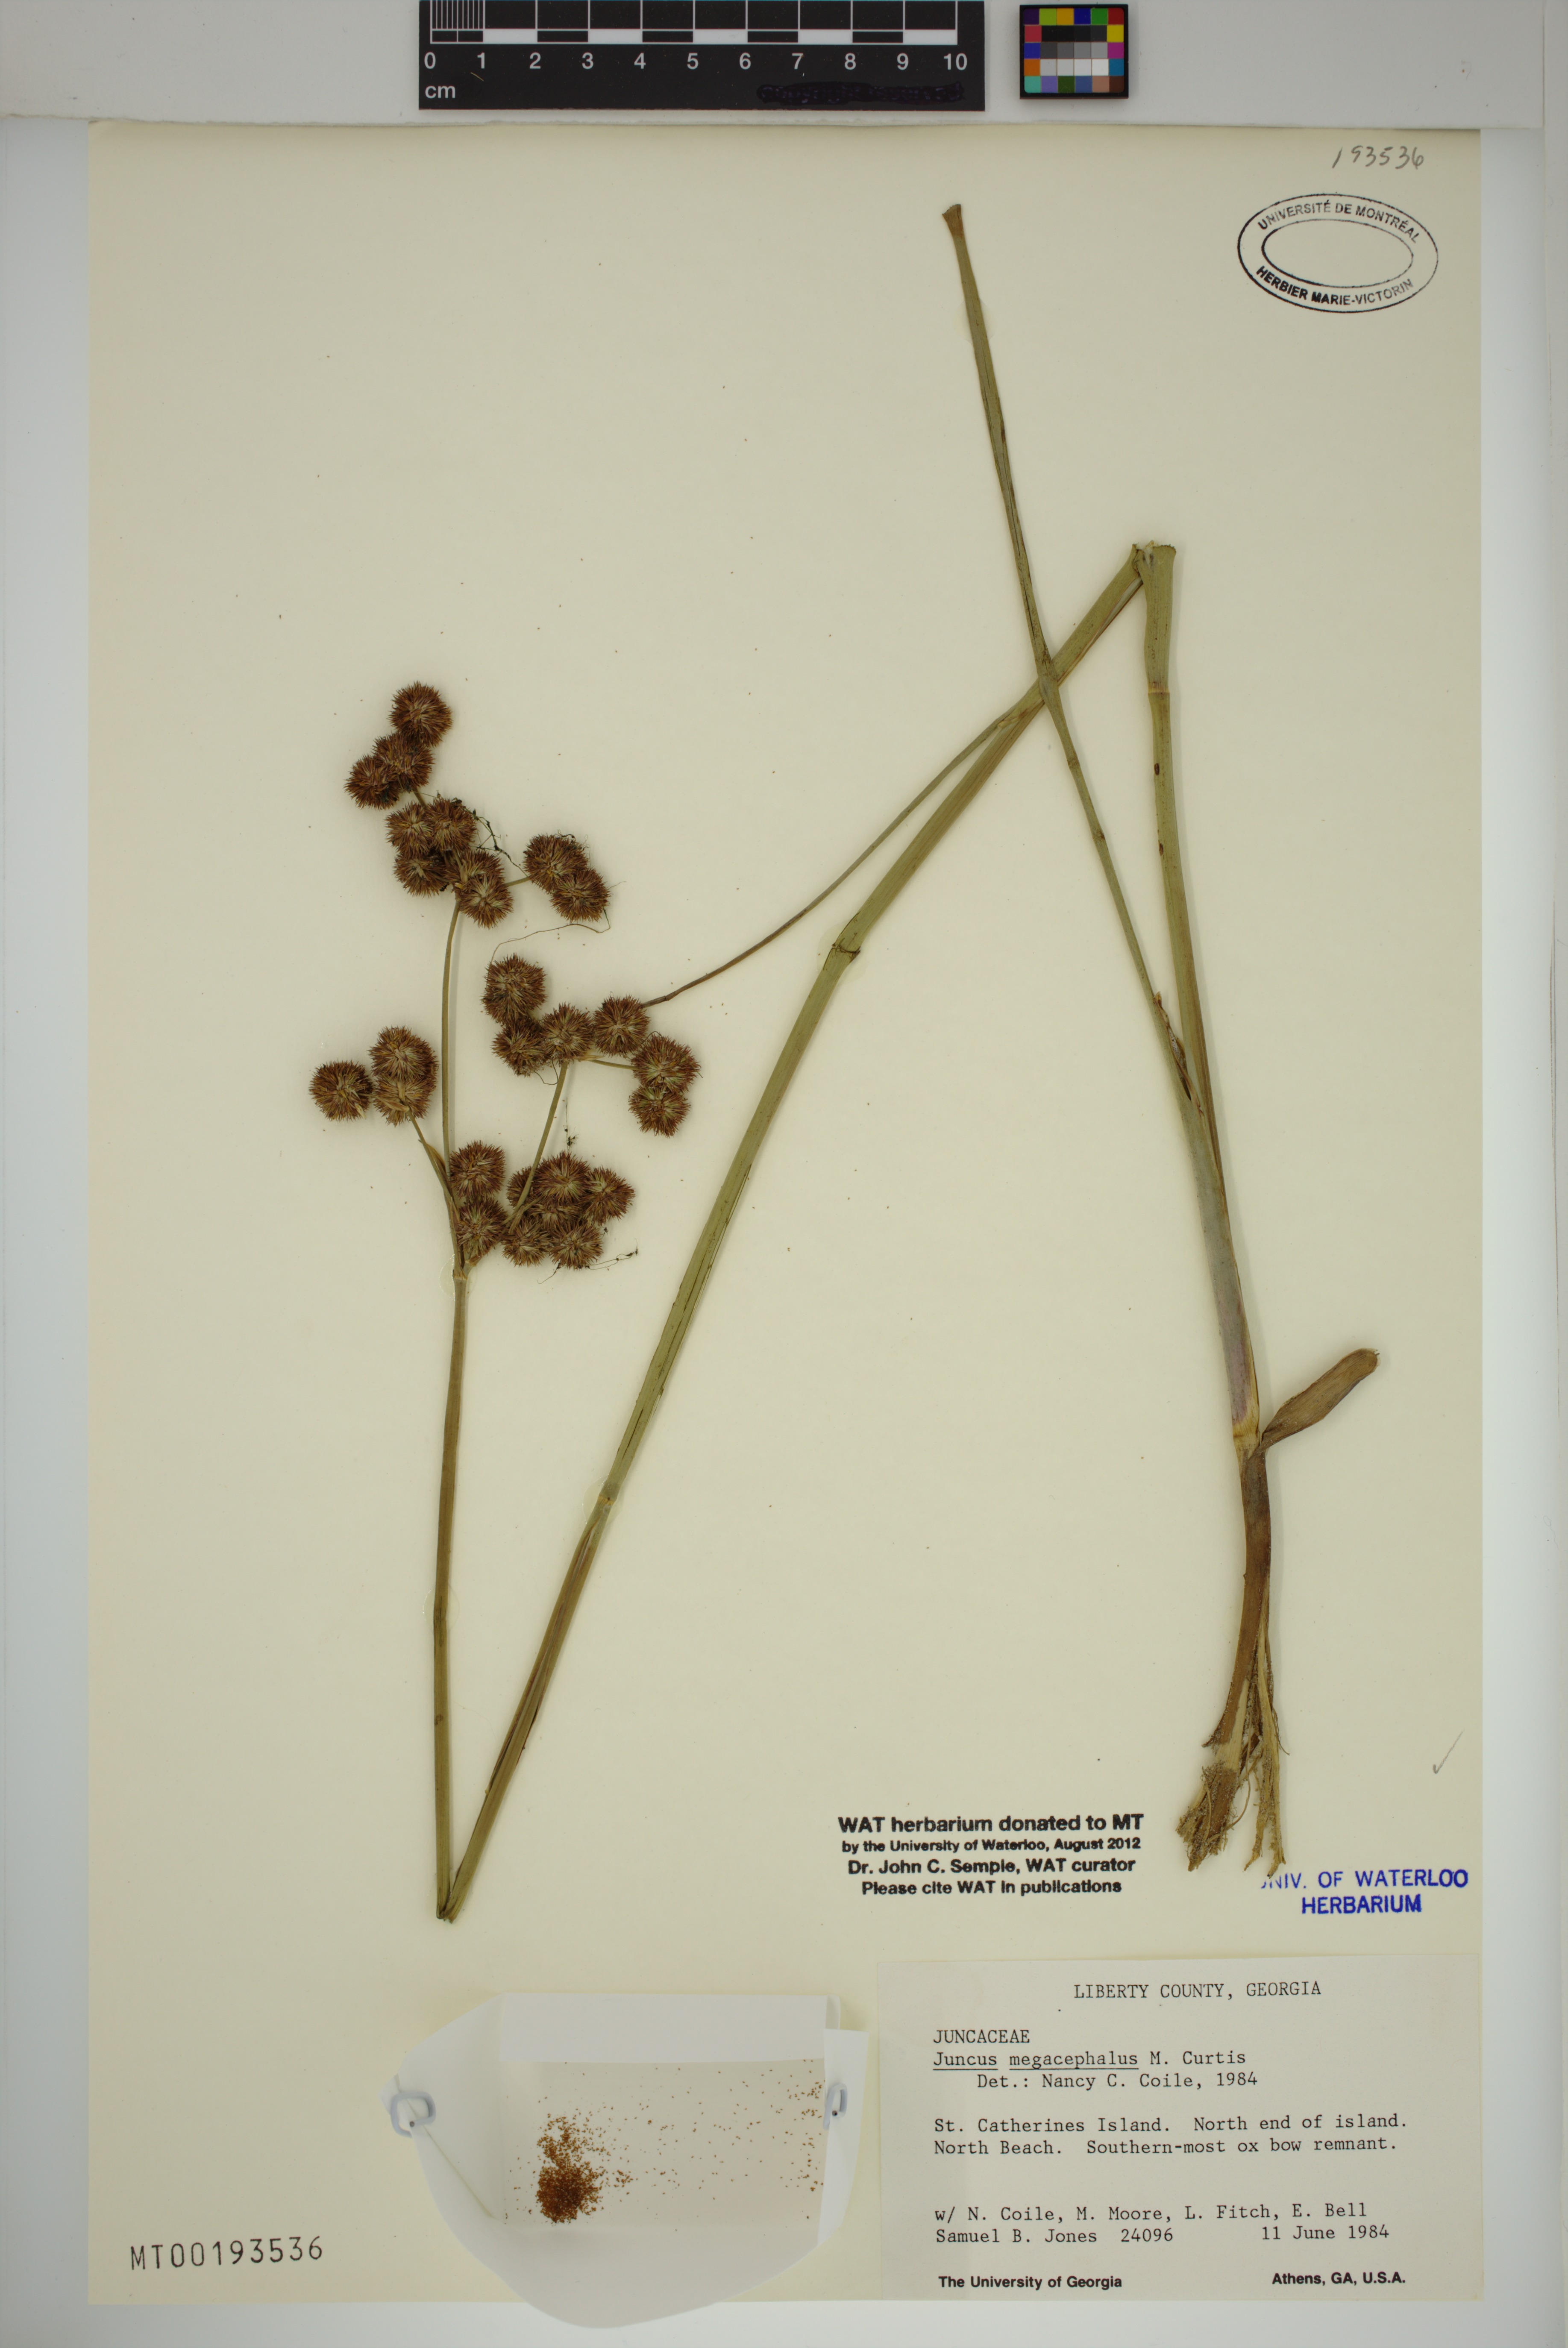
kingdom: Plantae
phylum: Tracheophyta
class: Liliopsida
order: Poales
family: Juncaceae
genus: Juncus
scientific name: Juncus megacephalus
